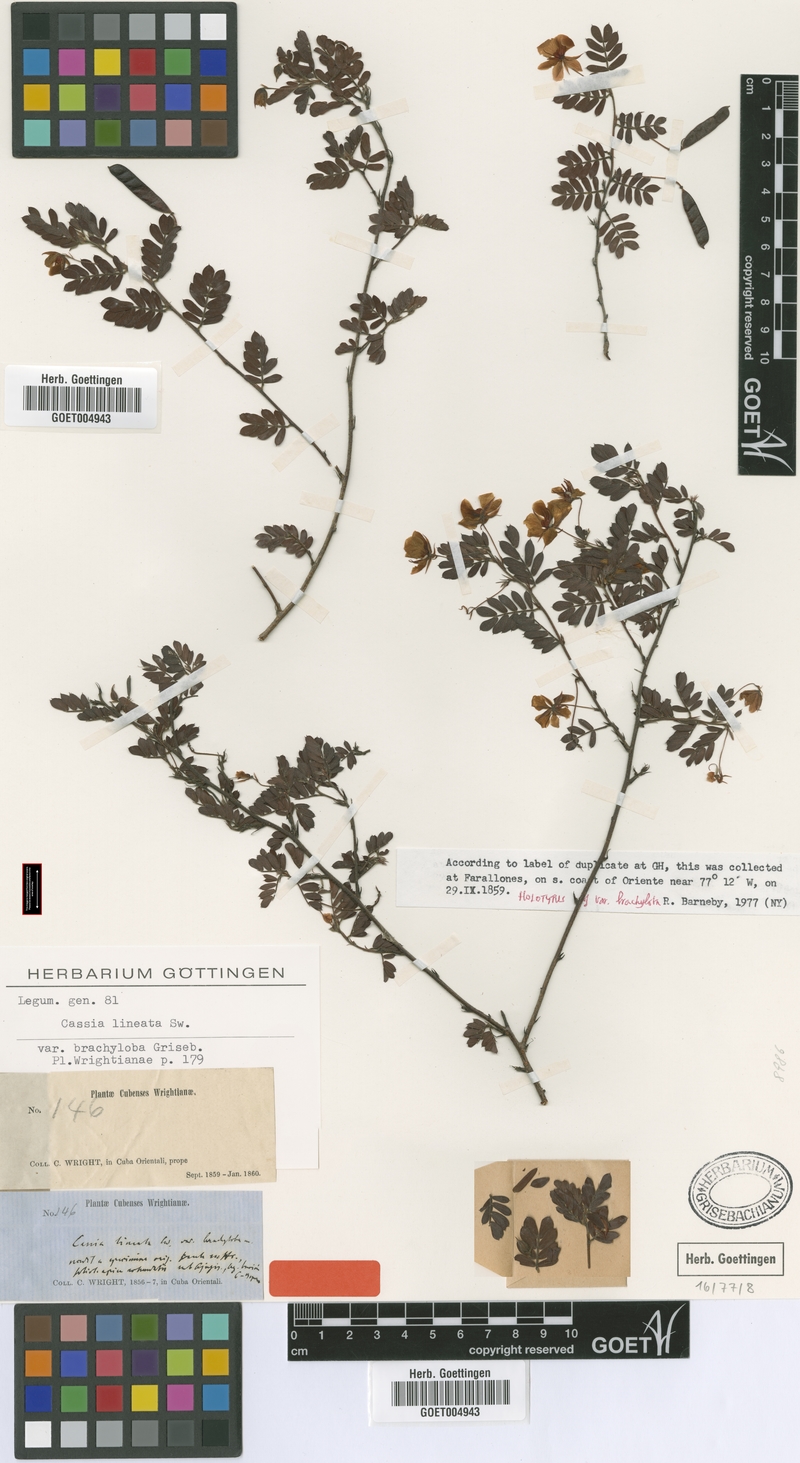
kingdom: Plantae
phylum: Tracheophyta
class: Magnoliopsida
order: Fabales
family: Fabaceae
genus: Chamaecrista
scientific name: Chamaecrista lineata
